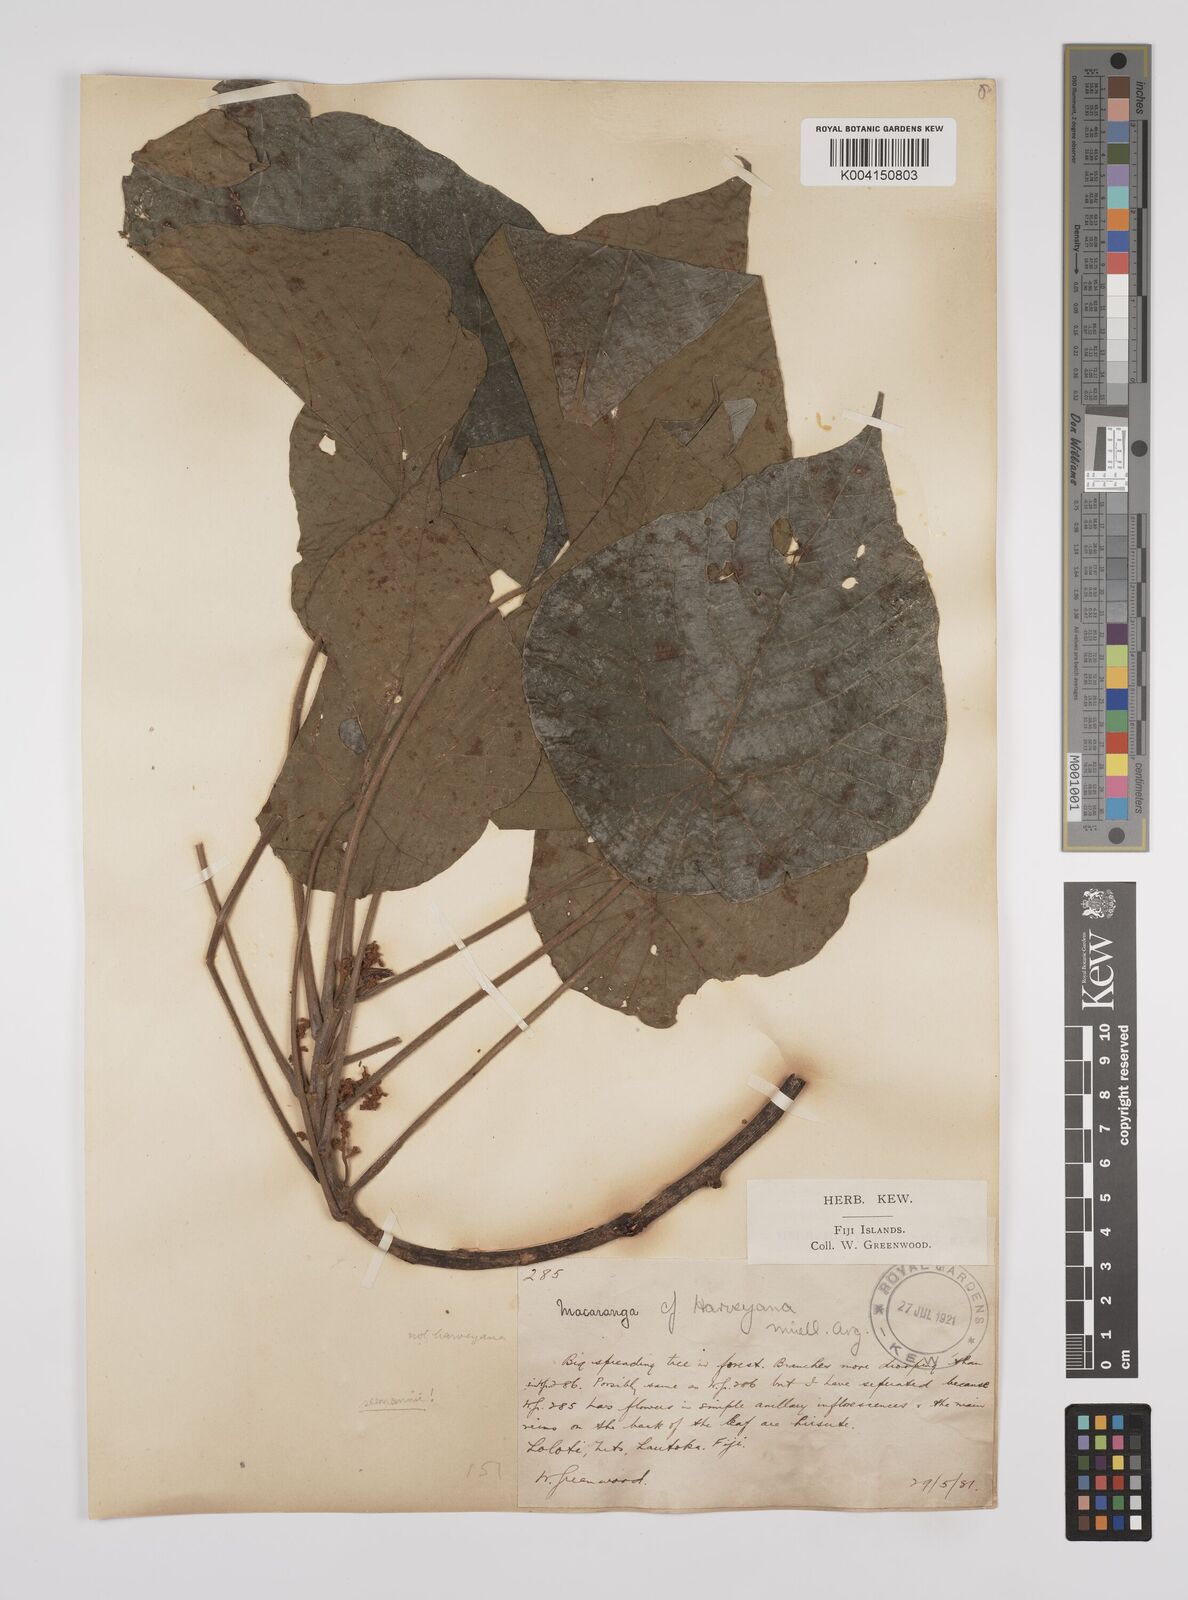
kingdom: Plantae
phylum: Tracheophyta
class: Magnoliopsida
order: Malpighiales
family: Euphorbiaceae
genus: Macaranga
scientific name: Macaranga seemannii
